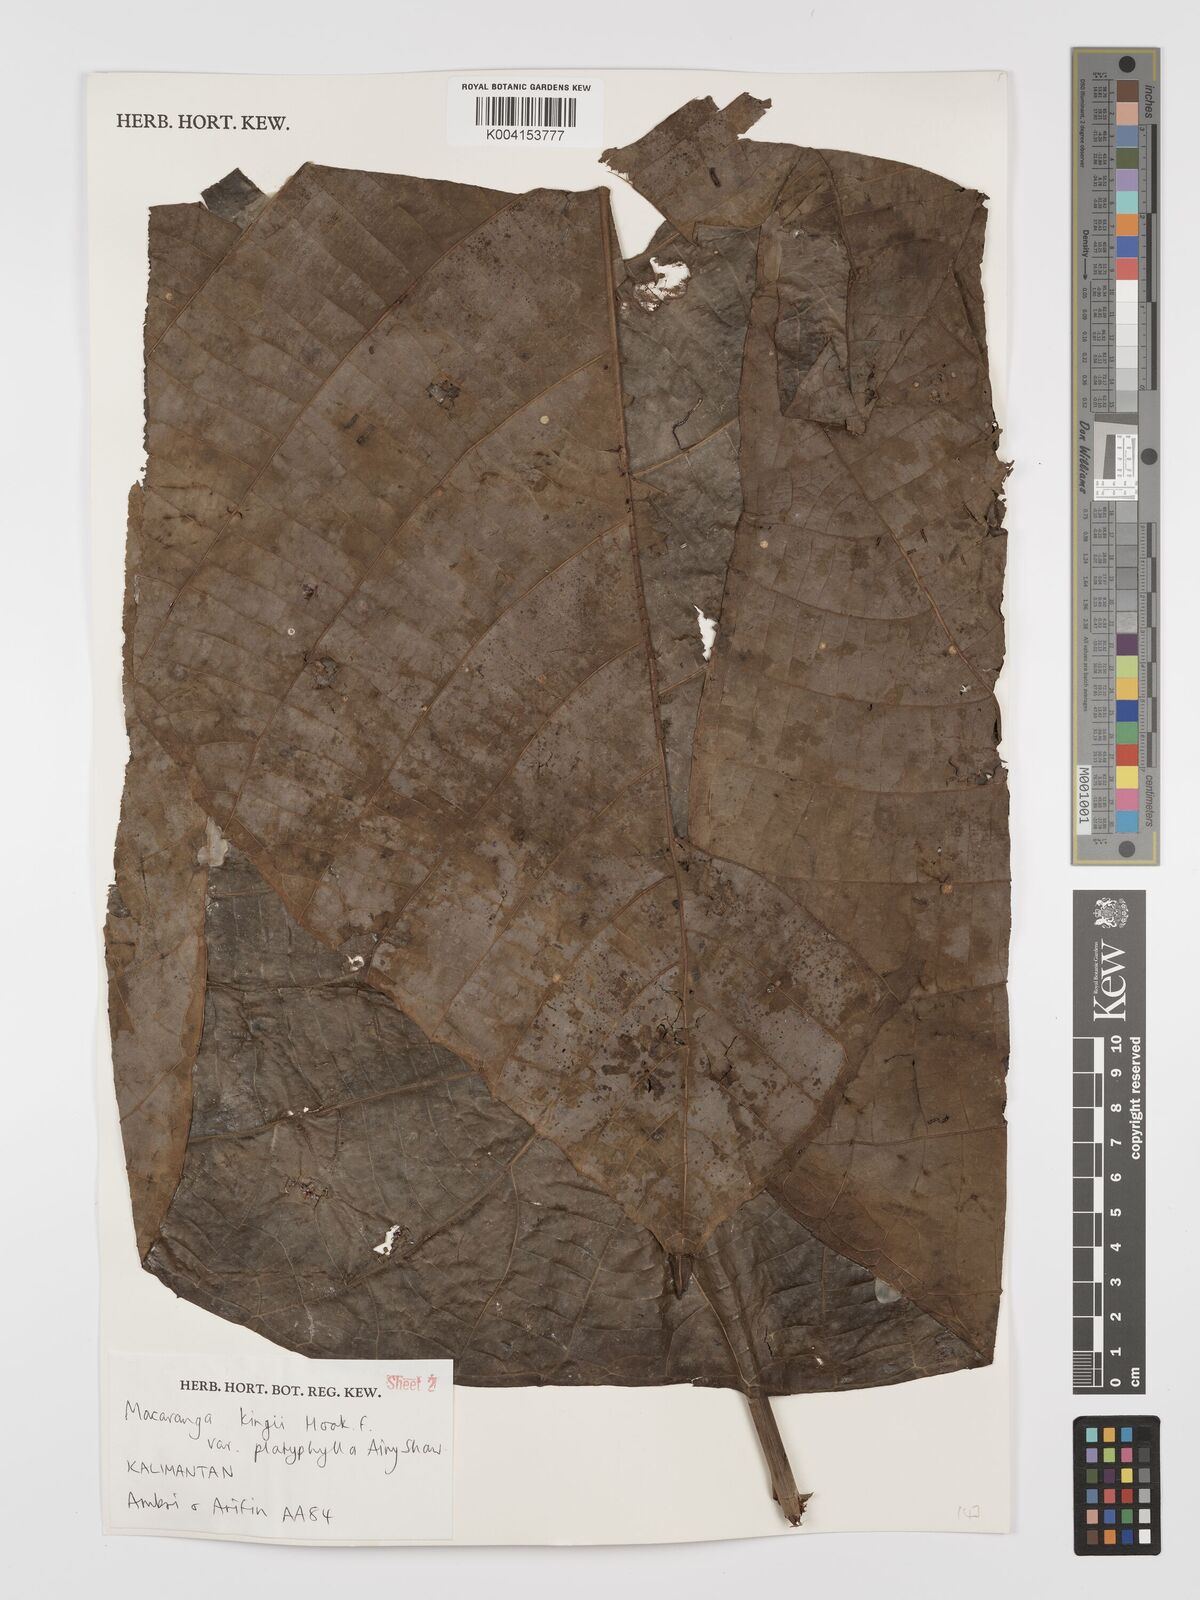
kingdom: Plantae
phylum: Tracheophyta
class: Magnoliopsida
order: Malpighiales
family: Euphorbiaceae
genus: Macaranga
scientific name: Macaranga umbrosa
